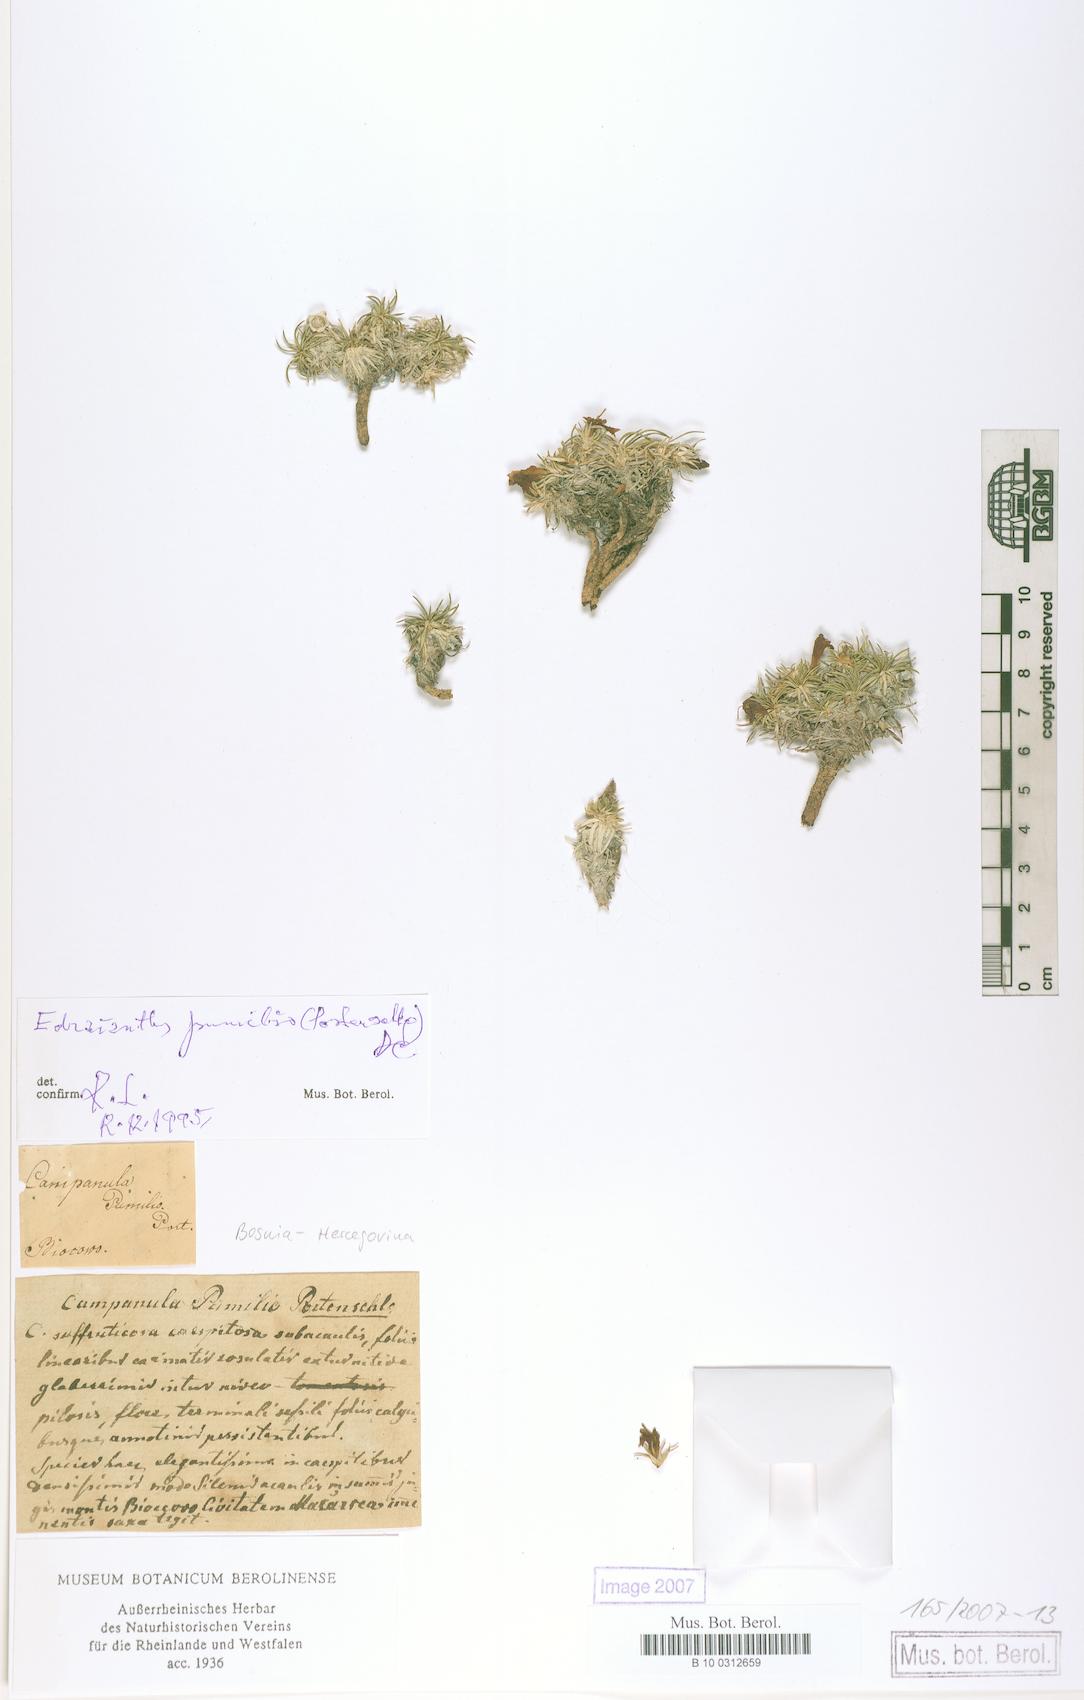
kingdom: Plantae
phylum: Tracheophyta
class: Magnoliopsida
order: Asterales
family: Campanulaceae
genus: Edraianthus
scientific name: Edraianthus pumilio
